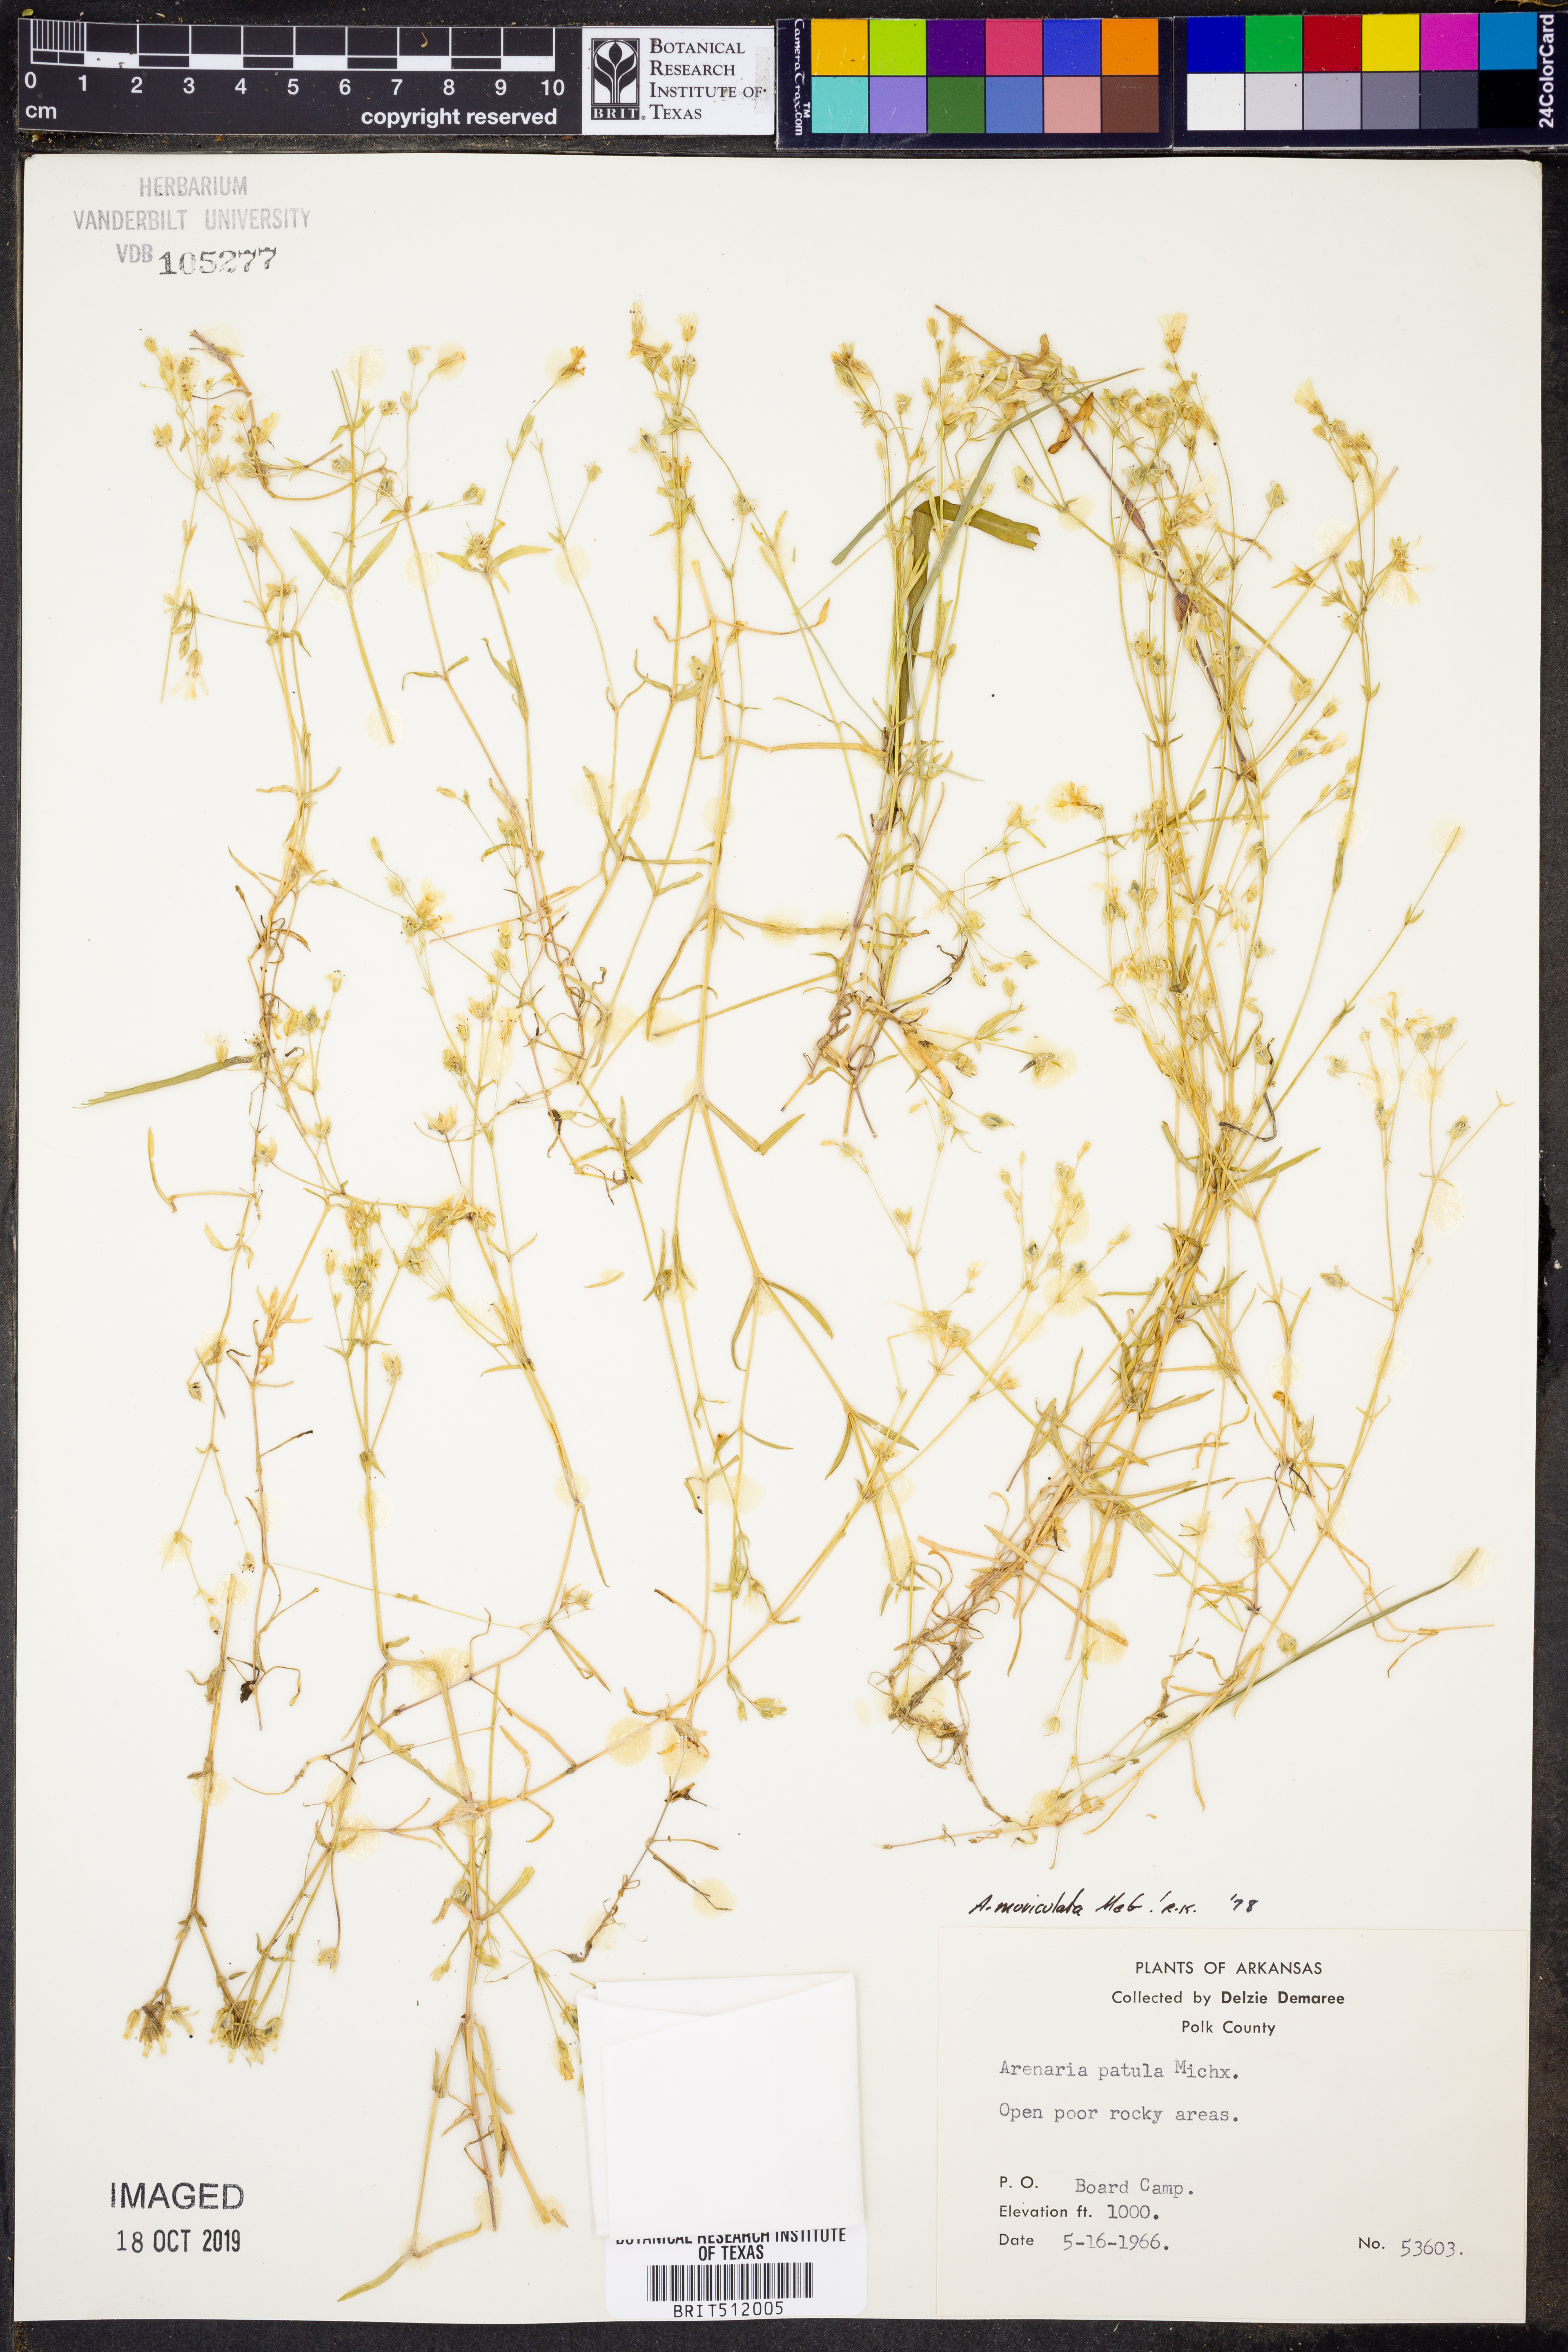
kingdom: Plantae
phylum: Tracheophyta
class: Magnoliopsida
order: Caryophyllales
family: Caryophyllaceae
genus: Mononeuria
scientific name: Mononeuria muscorum
